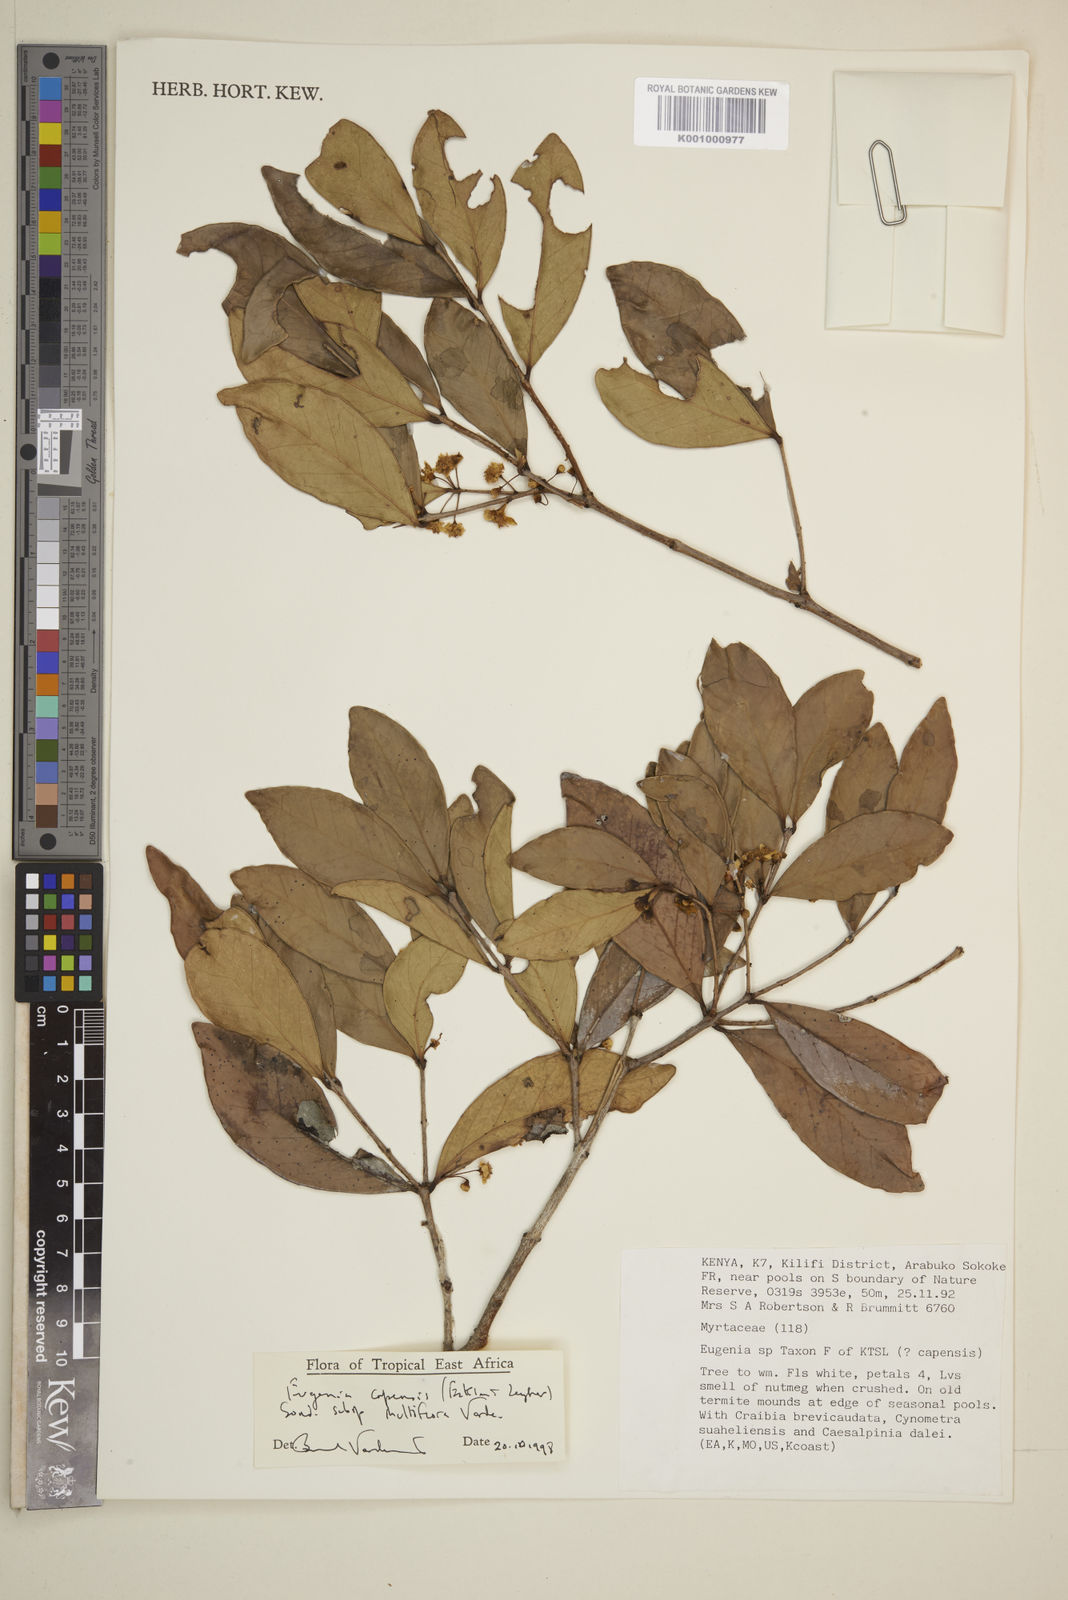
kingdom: Plantae
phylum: Tracheophyta
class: Magnoliopsida
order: Myrtales
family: Myrtaceae
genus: Eugenia
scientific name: Eugenia capensis
